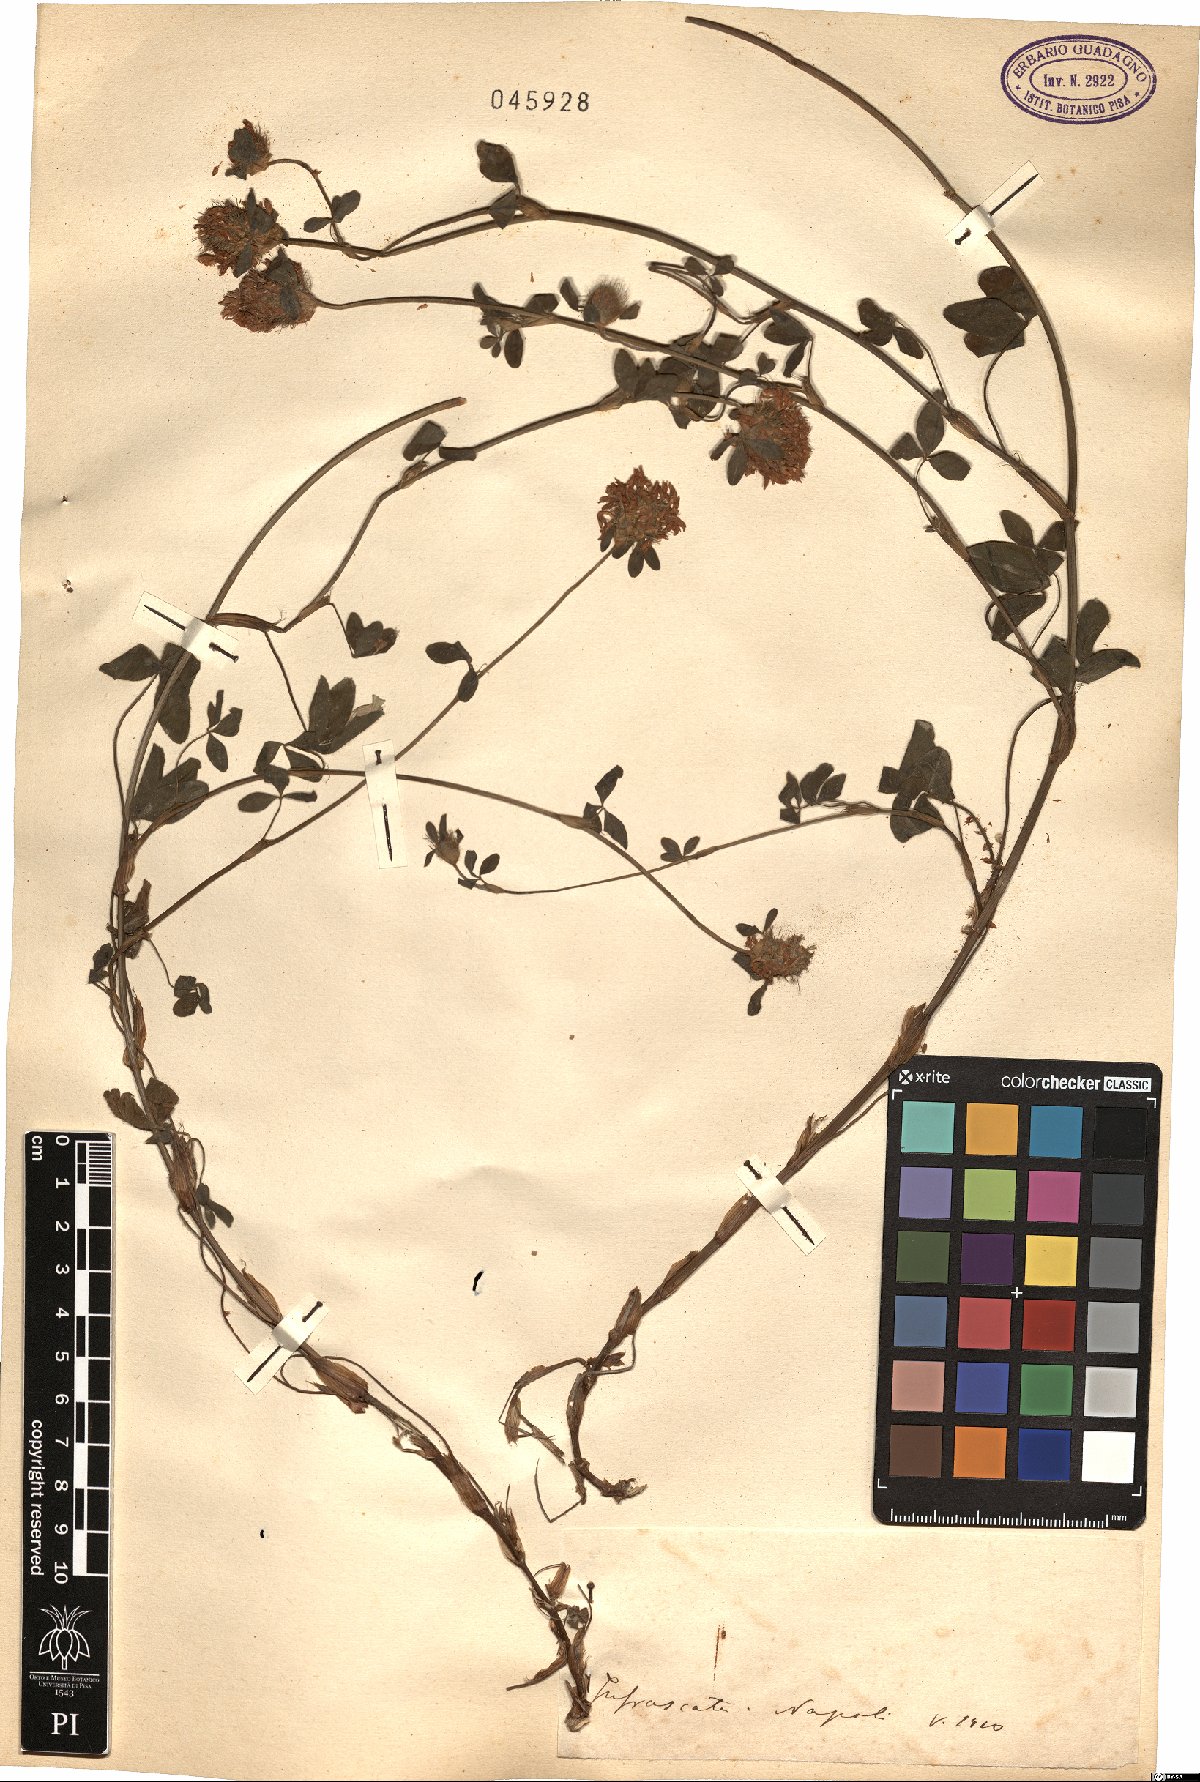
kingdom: Plantae
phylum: Tracheophyta
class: Magnoliopsida
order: Fabales
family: Fabaceae
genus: Trifolium
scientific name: Trifolium
